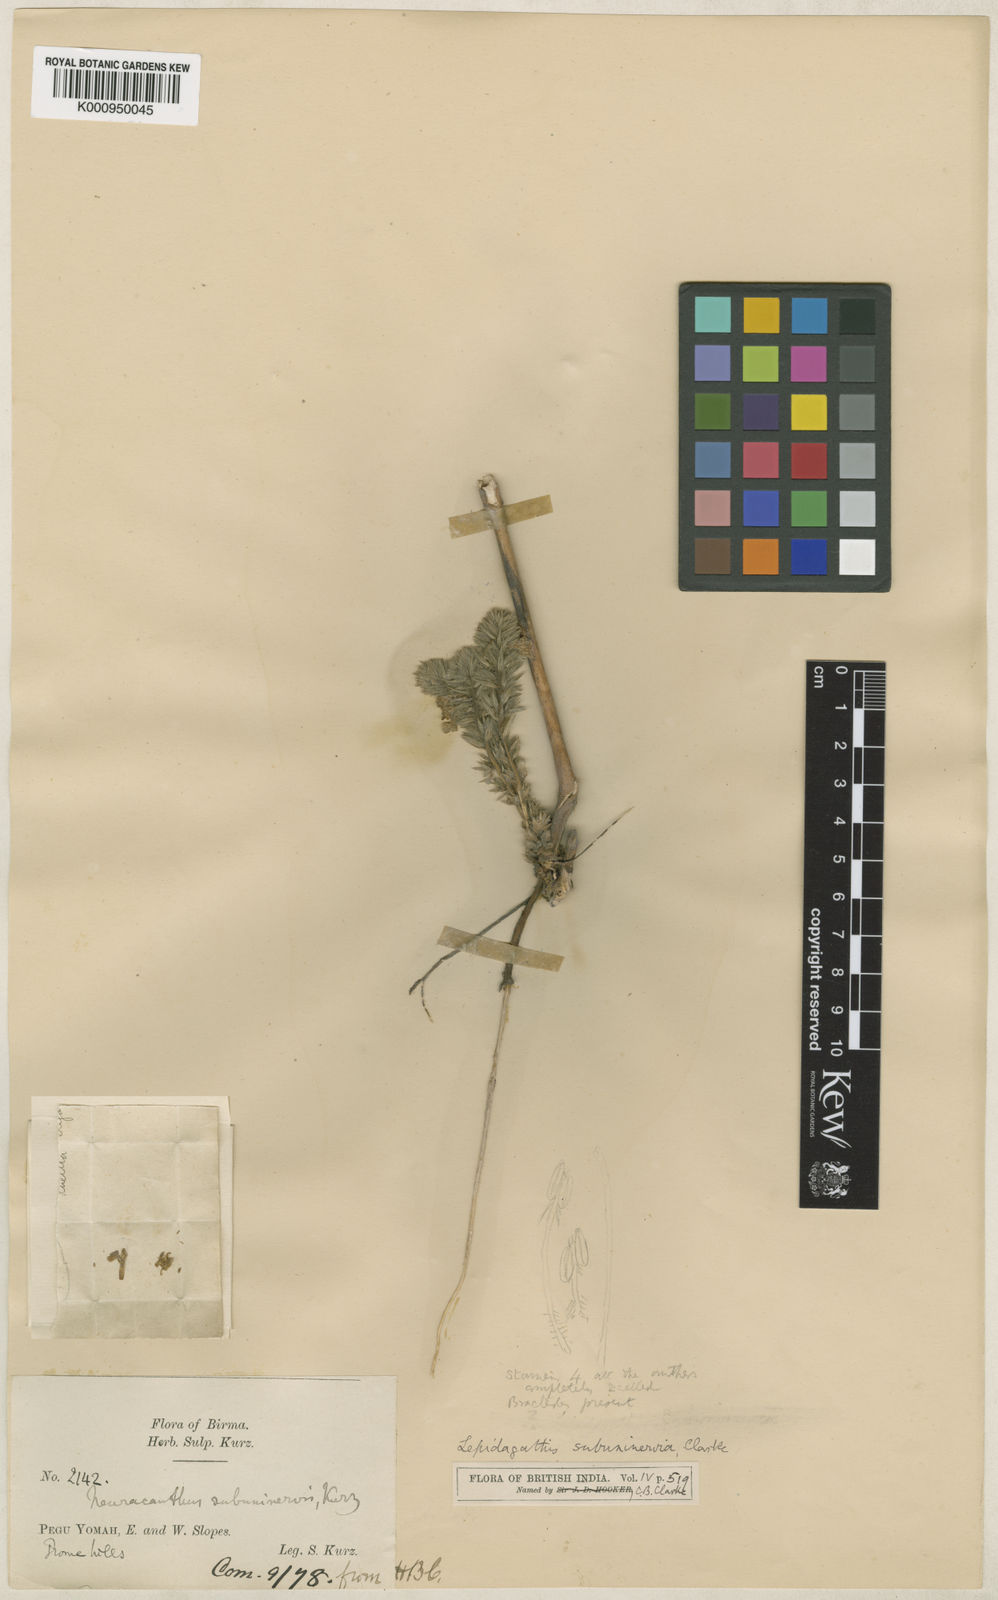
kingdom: Plantae
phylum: Tracheophyta
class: Magnoliopsida
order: Lamiales
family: Acanthaceae
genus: Lepidagathis
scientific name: Lepidagathis
